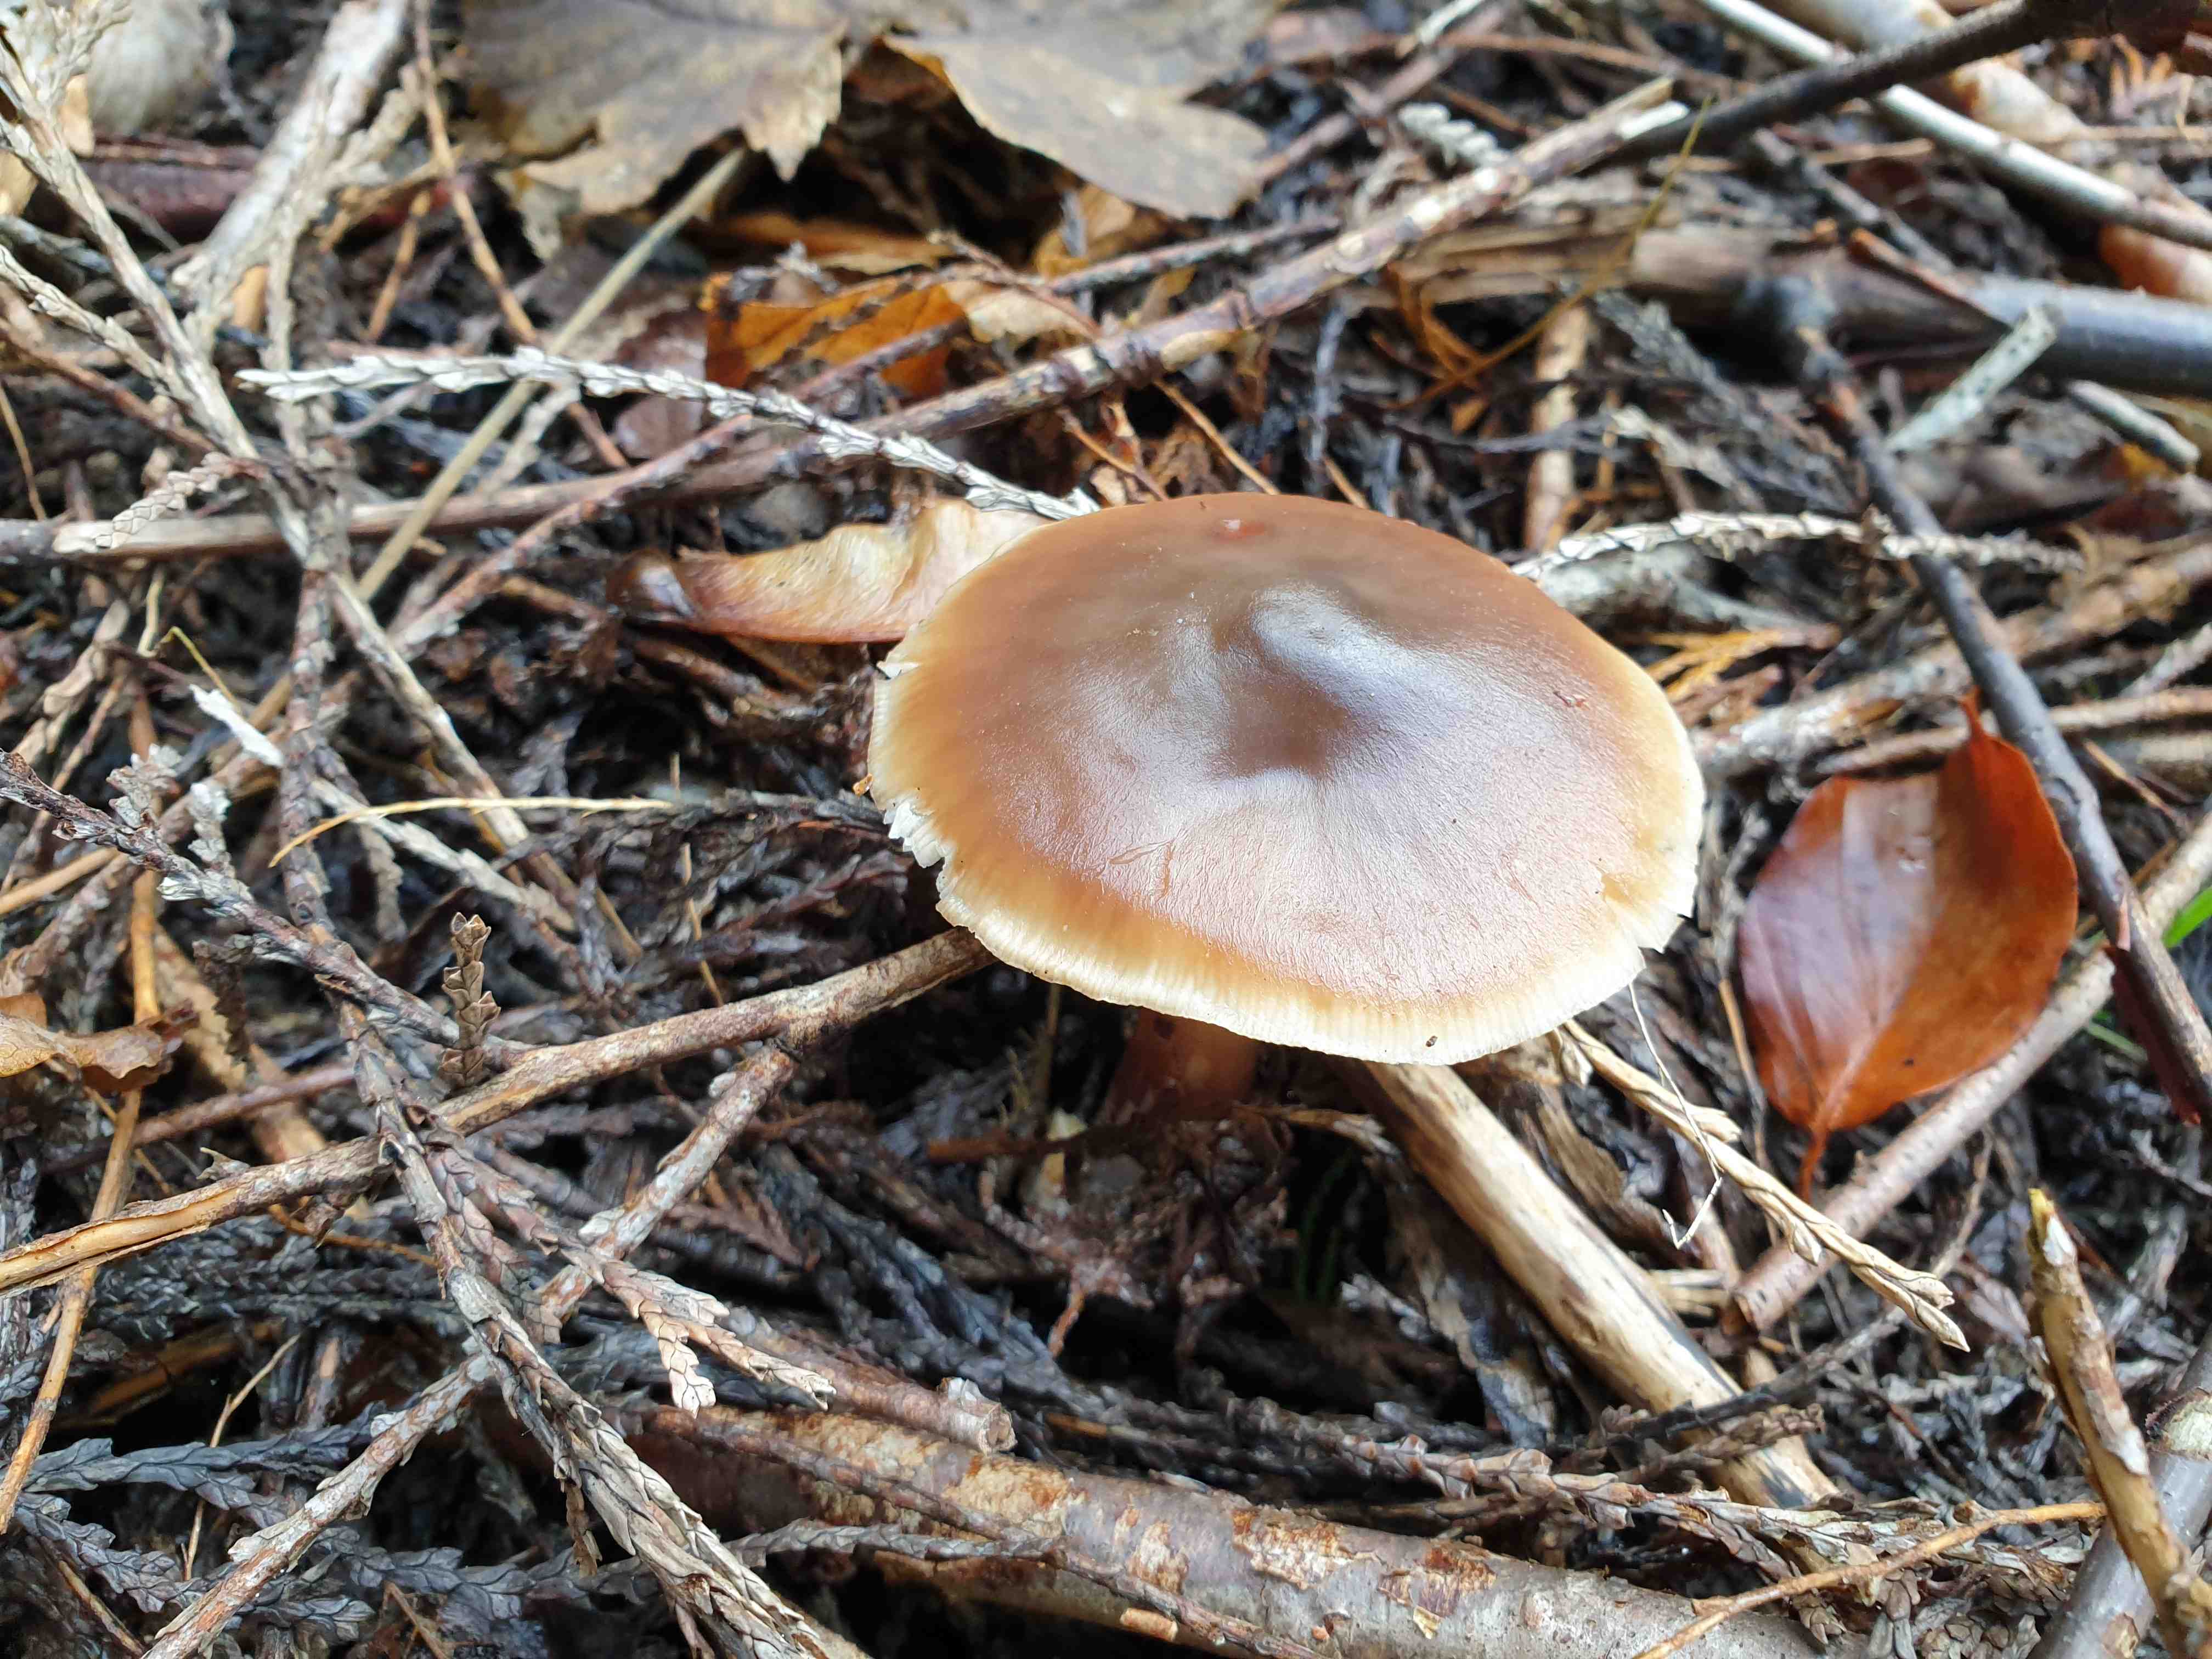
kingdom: Fungi
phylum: Basidiomycota
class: Agaricomycetes
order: Agaricales
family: Omphalotaceae
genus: Rhodocollybia
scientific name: Rhodocollybia asema
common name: horngrå fladhat
